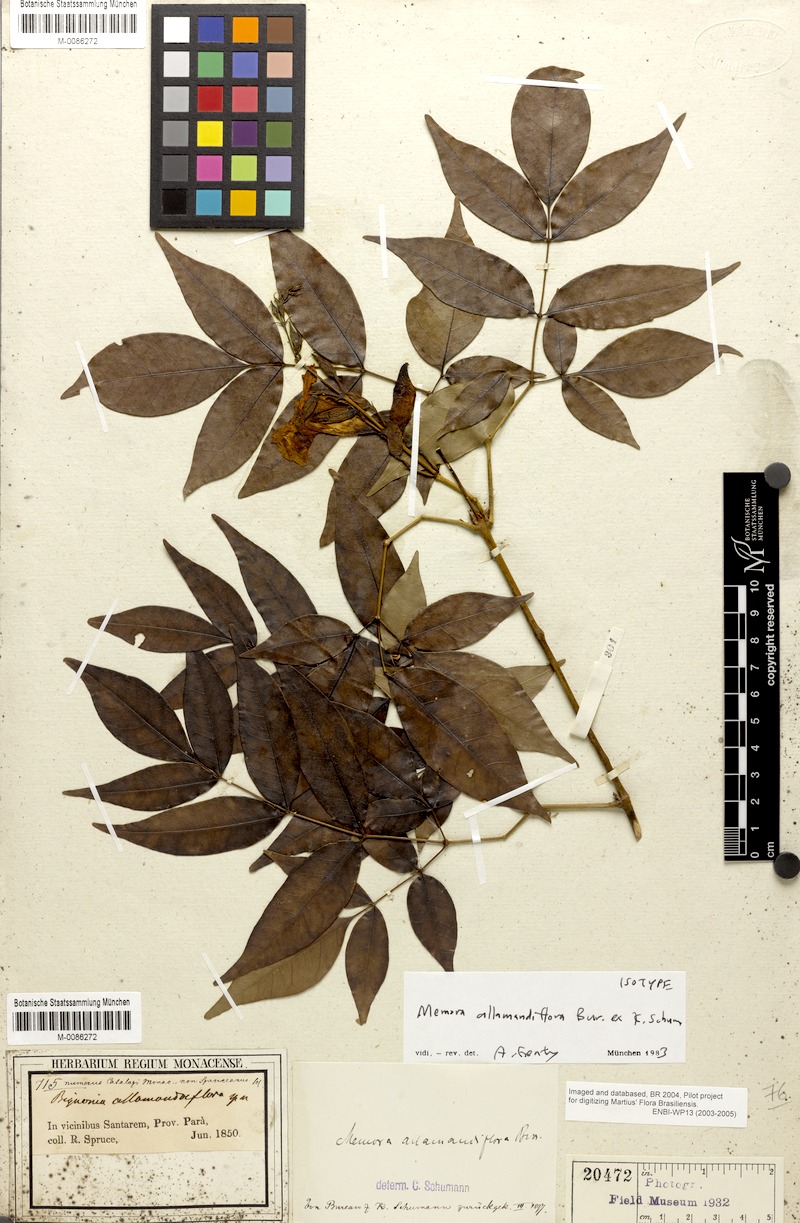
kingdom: Plantae
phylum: Tracheophyta
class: Magnoliopsida
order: Lamiales
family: Bignoniaceae
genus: Adenocalymma
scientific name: Adenocalymma allamandiflorum
